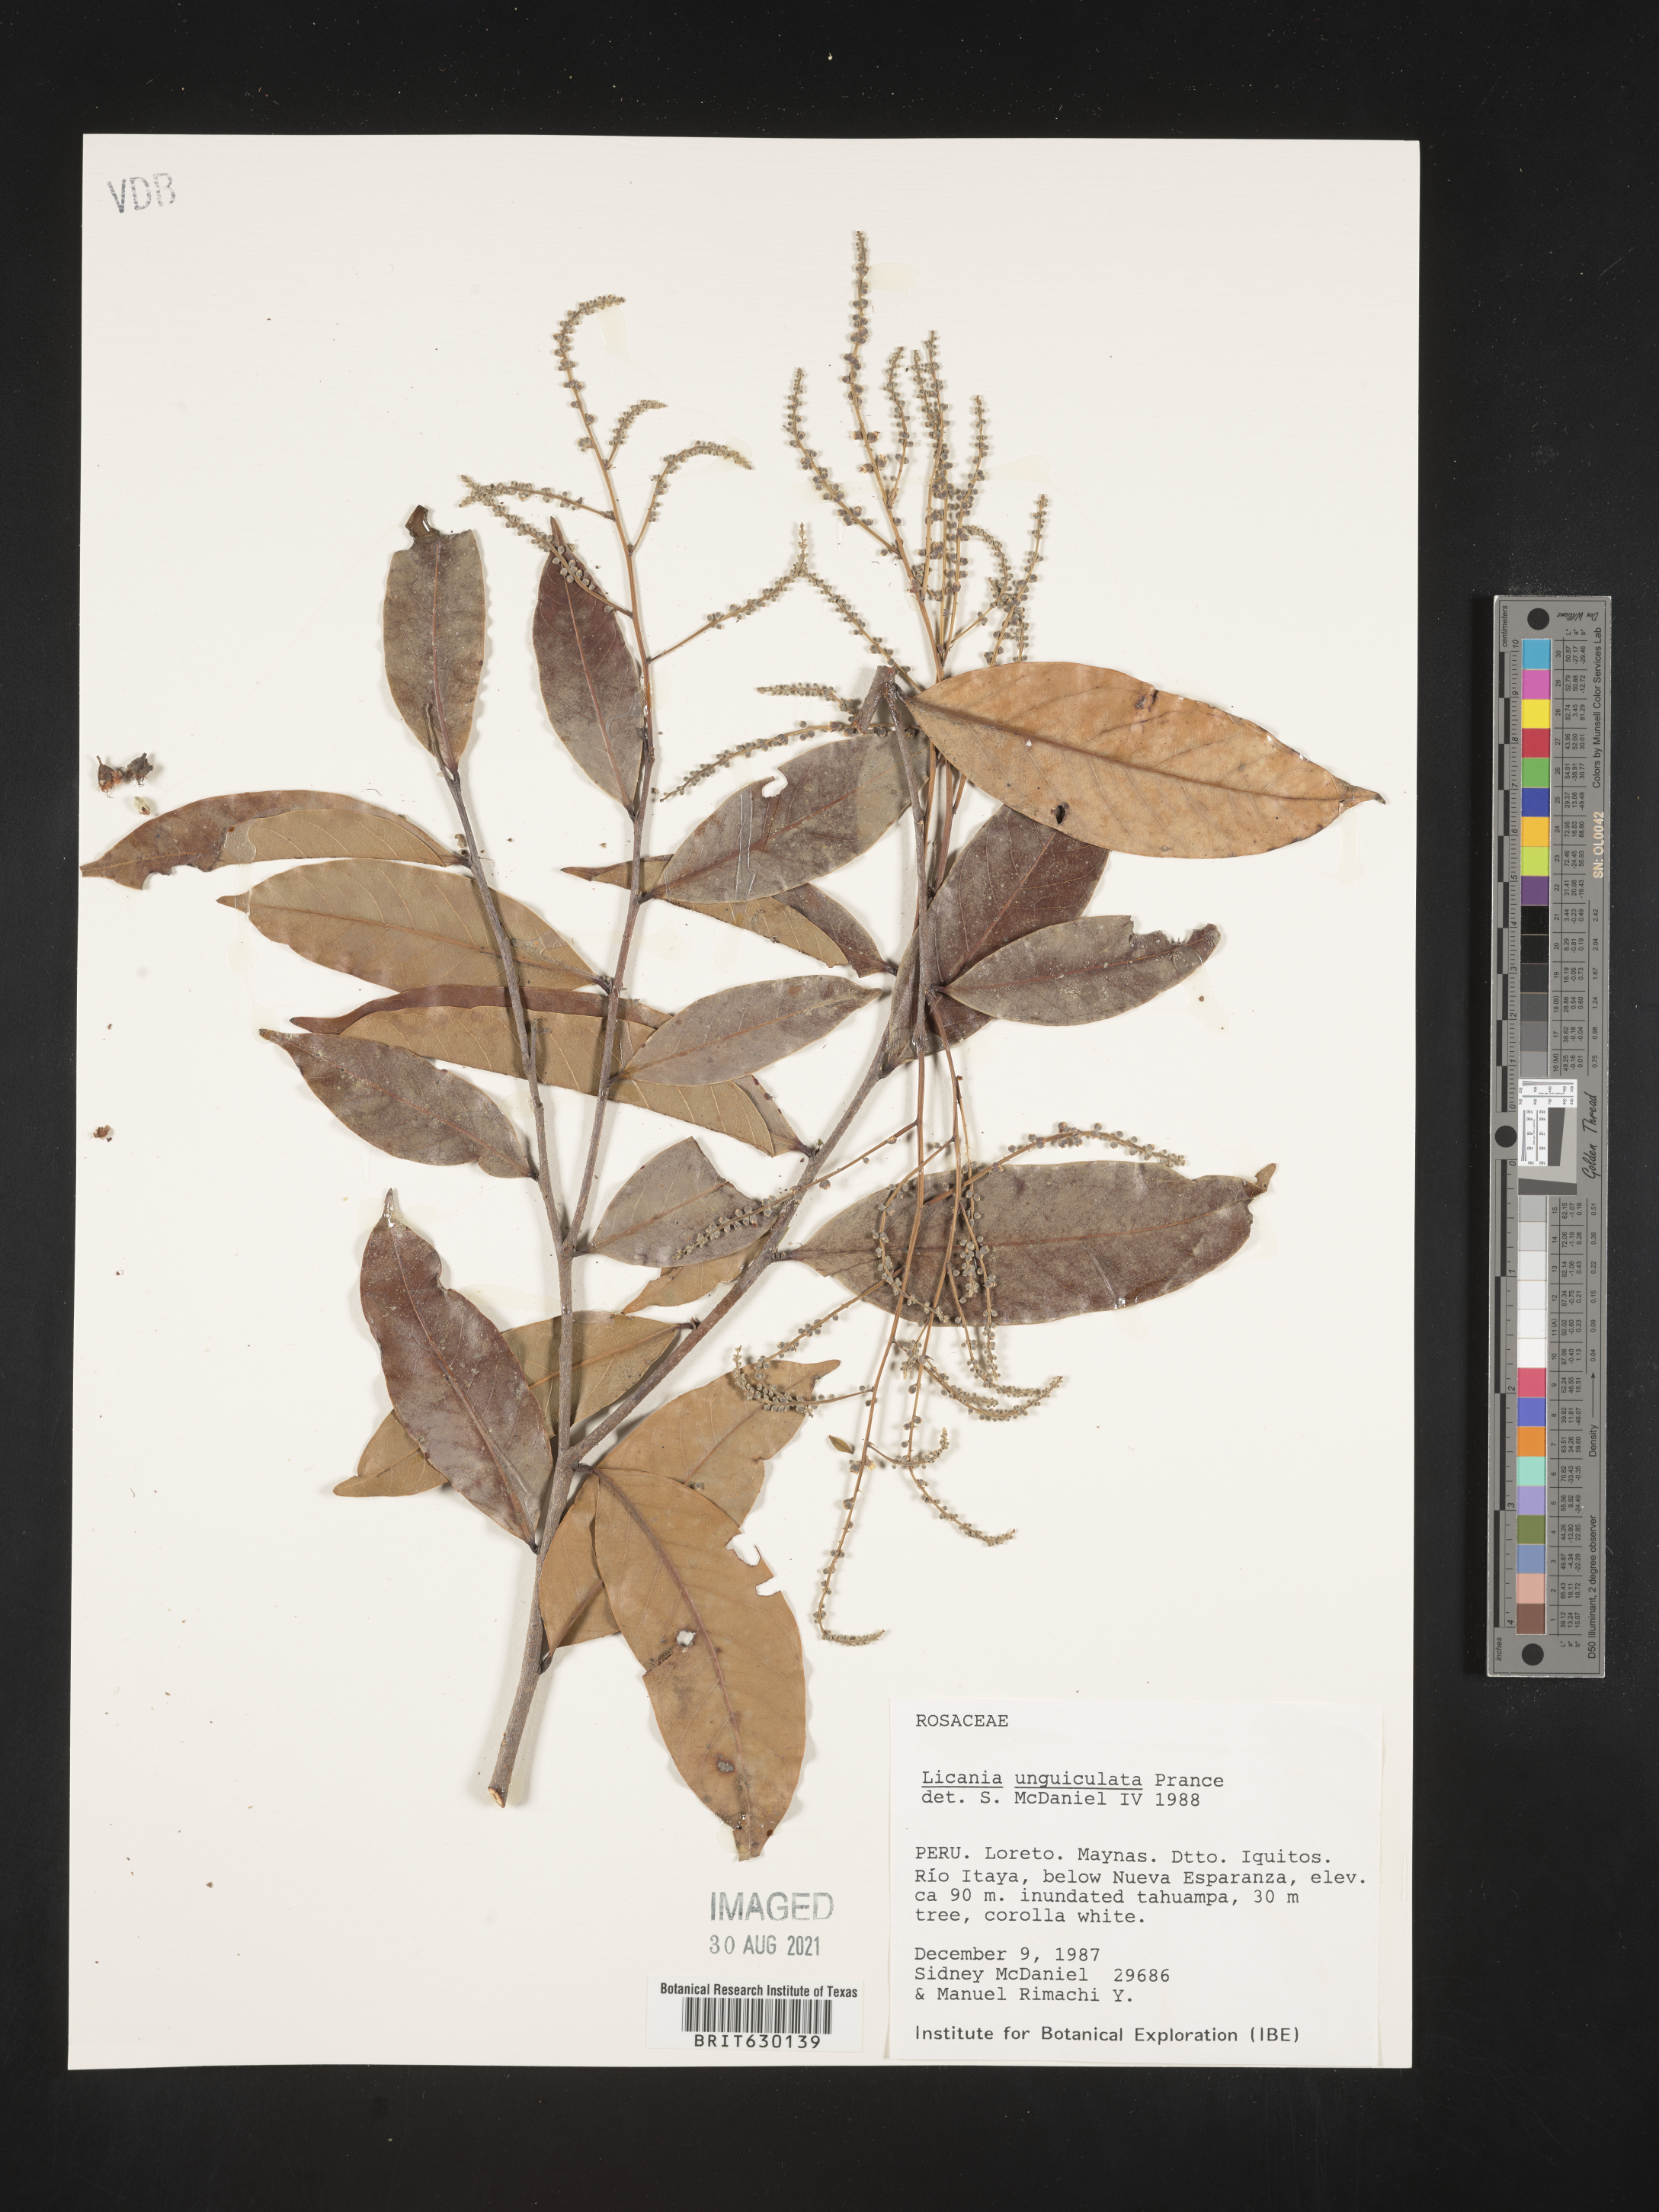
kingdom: Plantae
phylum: Tracheophyta
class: Magnoliopsida
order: Malpighiales
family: Chrysobalanaceae
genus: Moquilea
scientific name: Moquilea unguiculata
